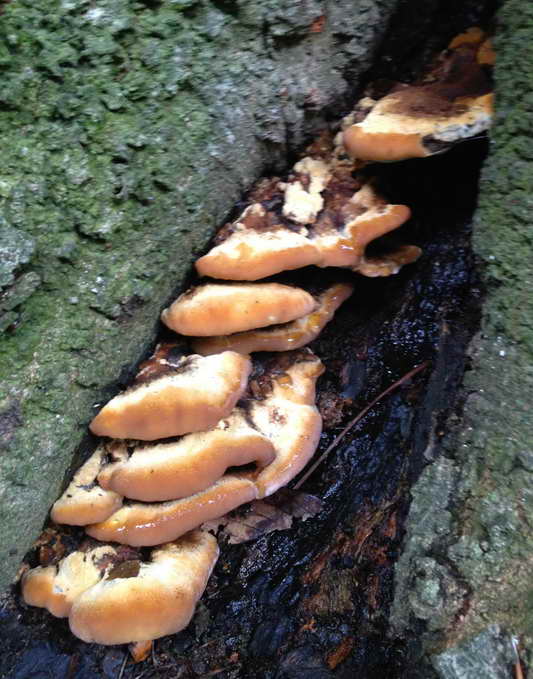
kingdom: Fungi
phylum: Basidiomycota
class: Agaricomycetes
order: Hymenochaetales
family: Hymenochaetaceae
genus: Inonotus
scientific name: Inonotus cuticularis
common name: kroghåret spejlporesvamp
